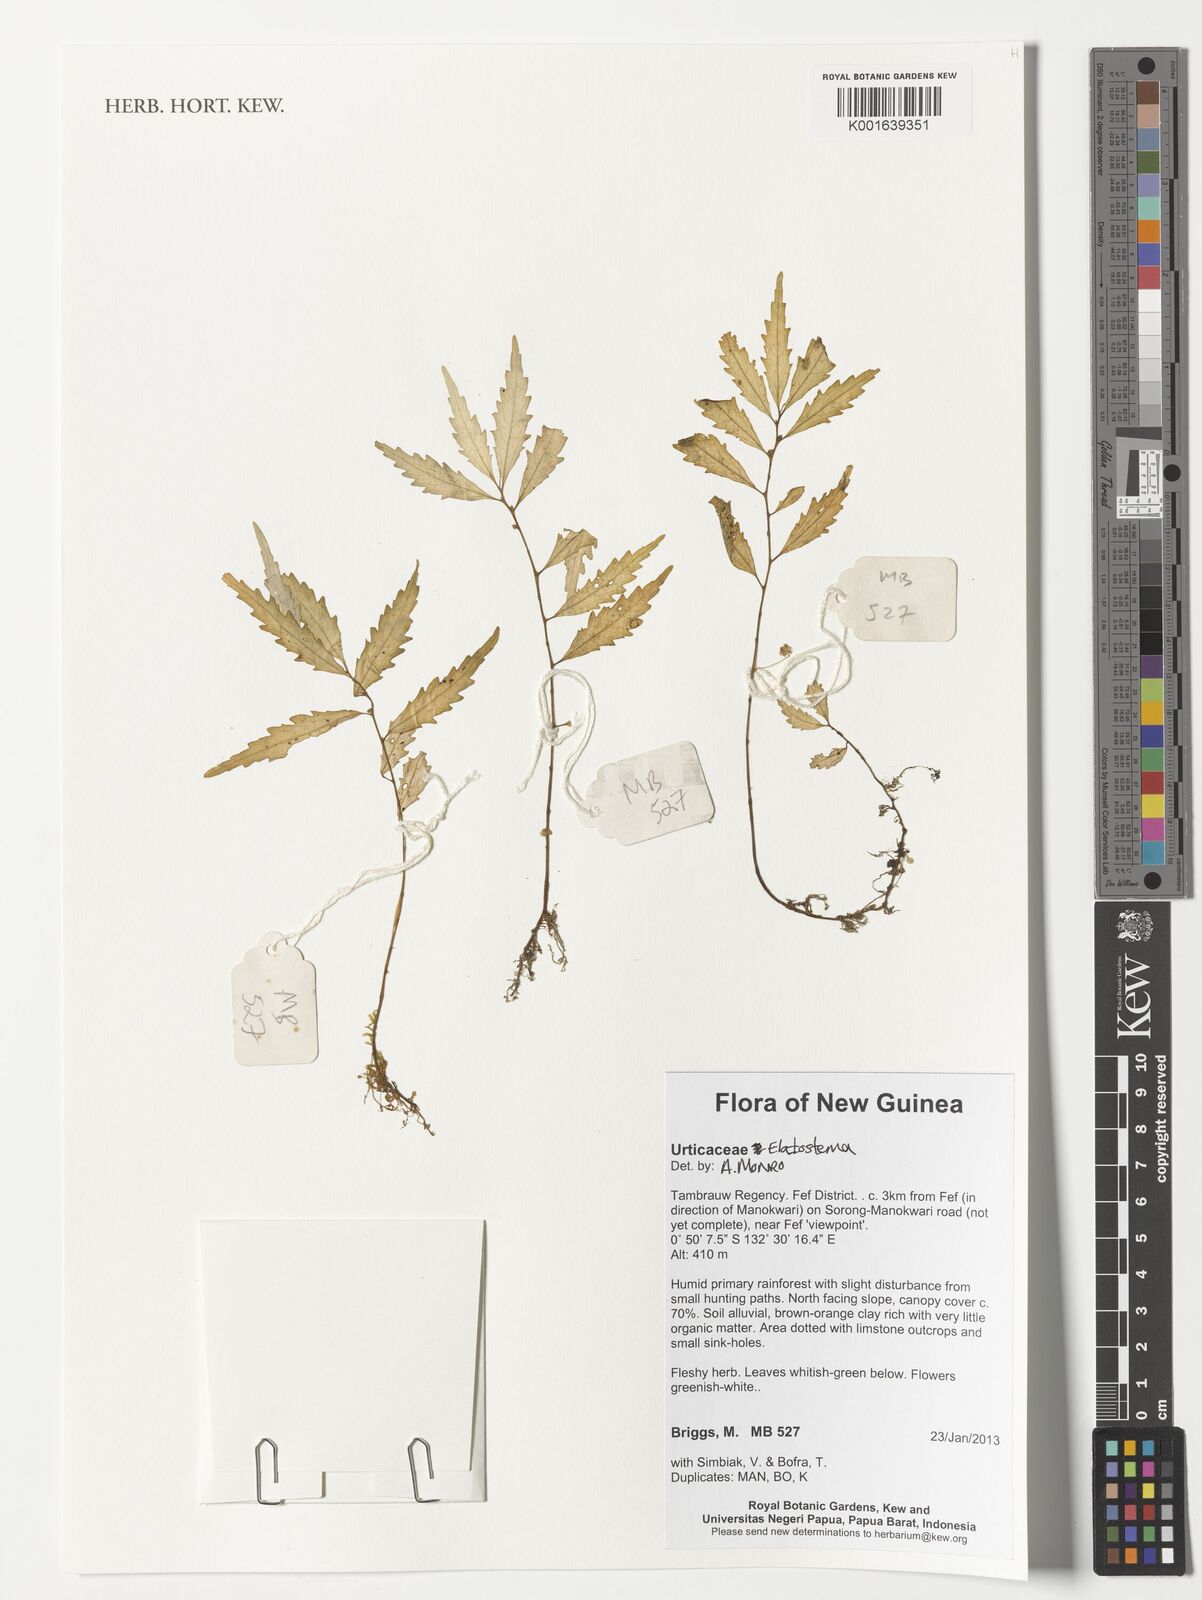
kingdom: Plantae
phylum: Tracheophyta
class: Magnoliopsida
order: Rosales
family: Urticaceae
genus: Elatostema
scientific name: Elatostema
